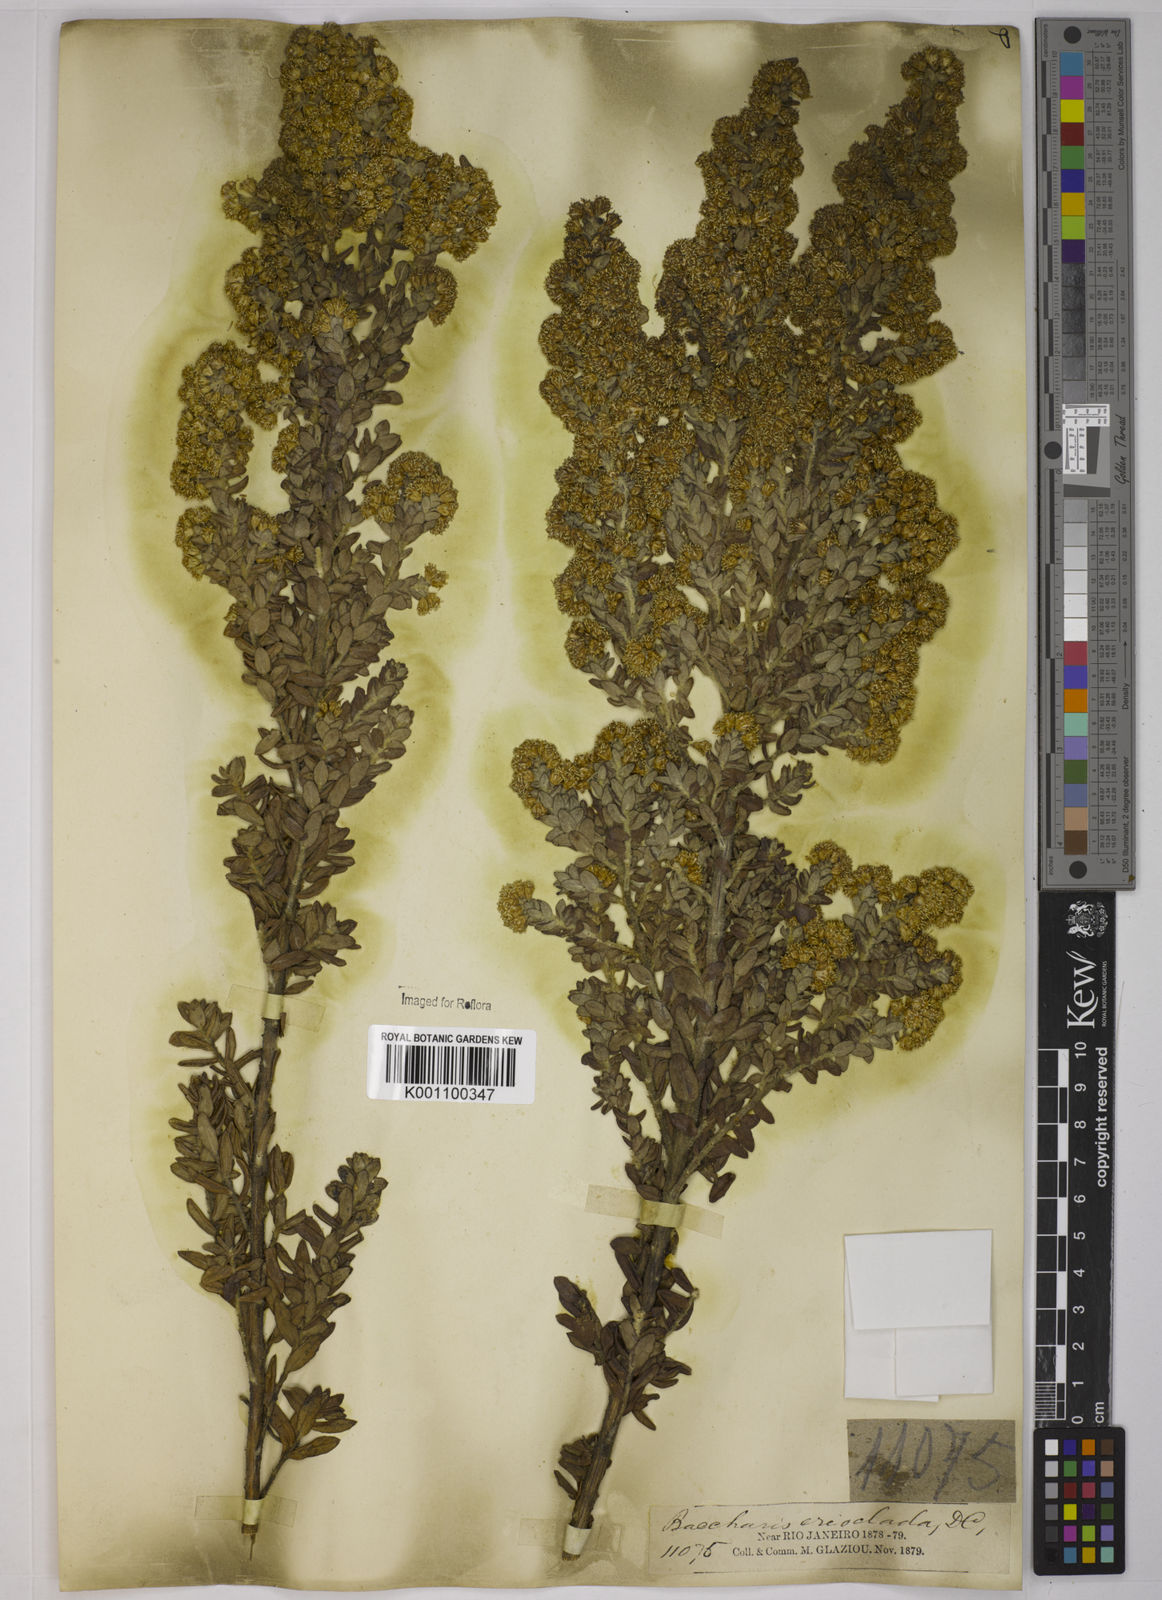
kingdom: Plantae
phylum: Tracheophyta
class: Magnoliopsida
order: Asterales
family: Asteraceae
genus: Baccharis
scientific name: Baccharis erioclada
